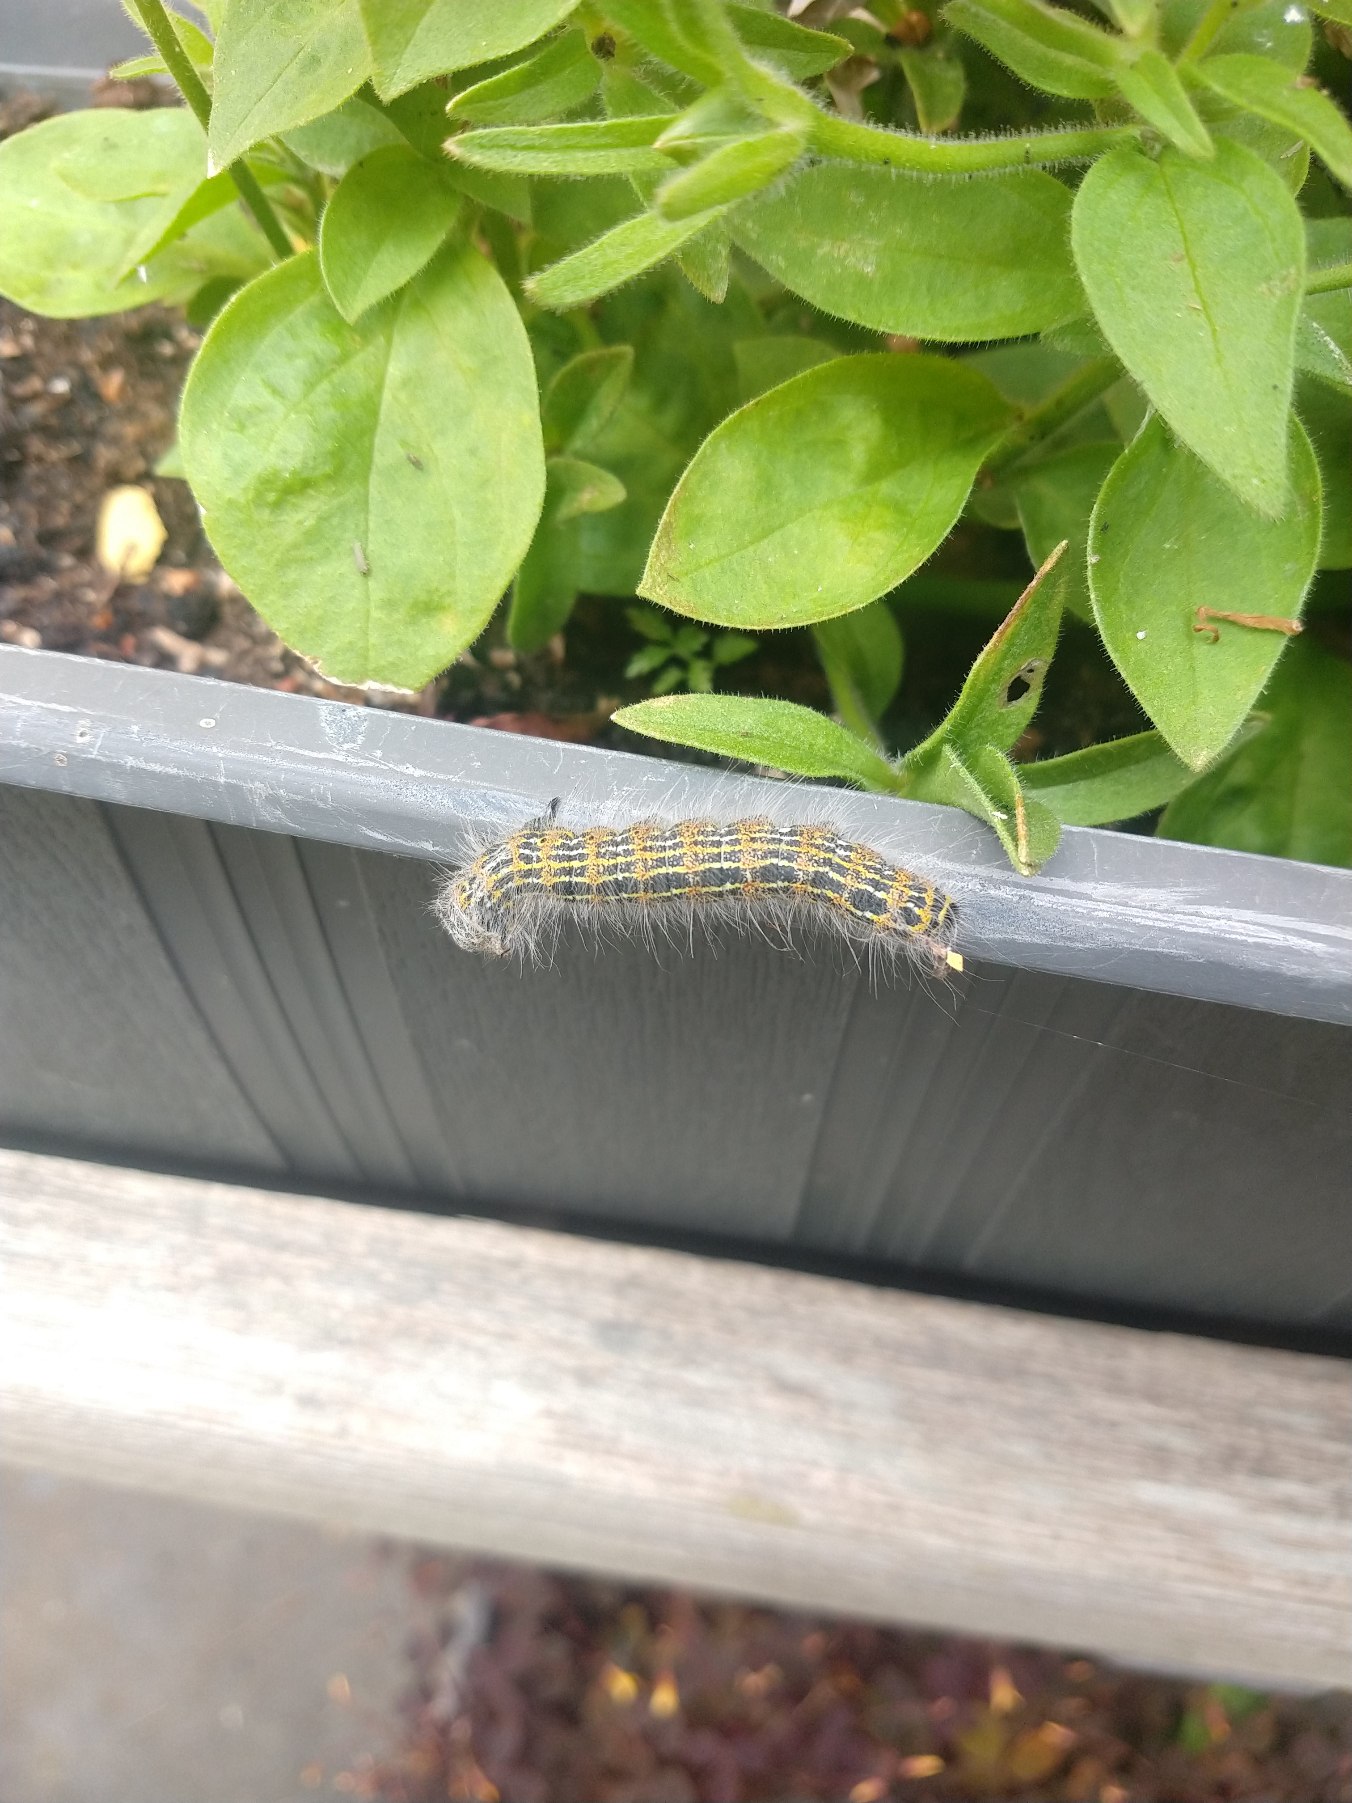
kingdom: Animalia
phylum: Arthropoda
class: Insecta
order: Lepidoptera
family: Notodontidae
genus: Phalera
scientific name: Phalera bucephala
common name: Måneplet
